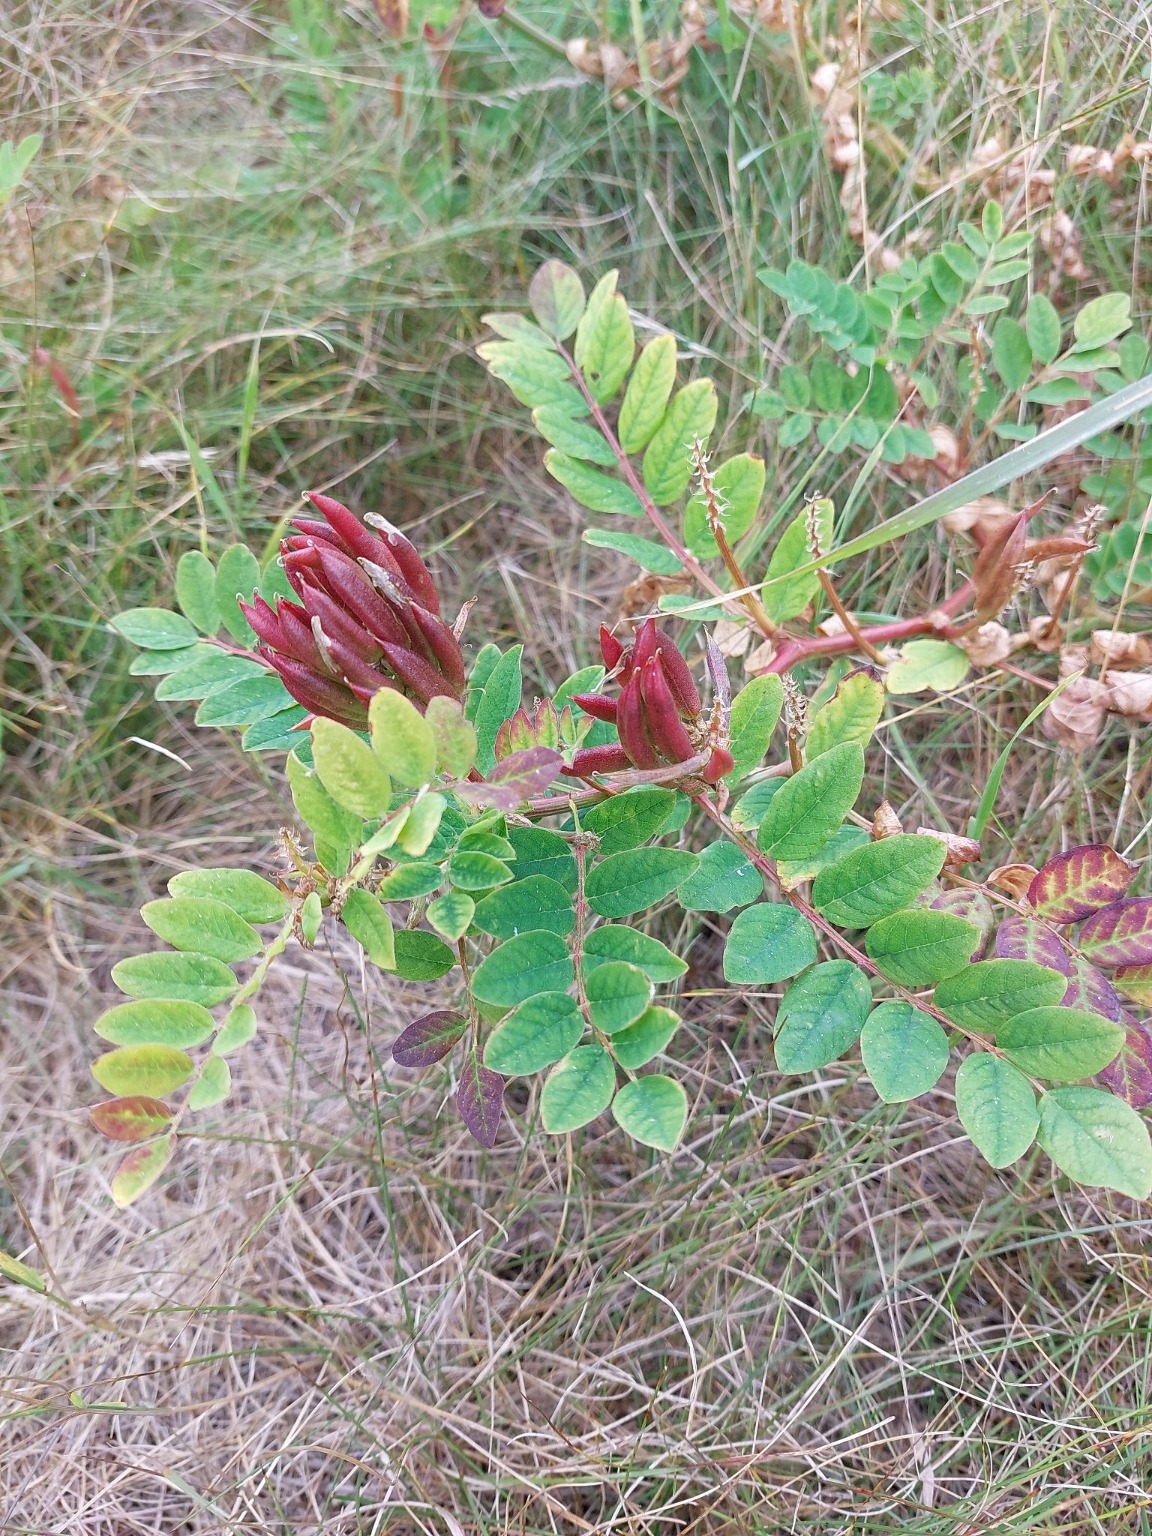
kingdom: Plantae
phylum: Tracheophyta
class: Magnoliopsida
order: Fabales
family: Fabaceae
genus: Astragalus
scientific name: Astragalus glycyphyllos
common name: Sød astragel
